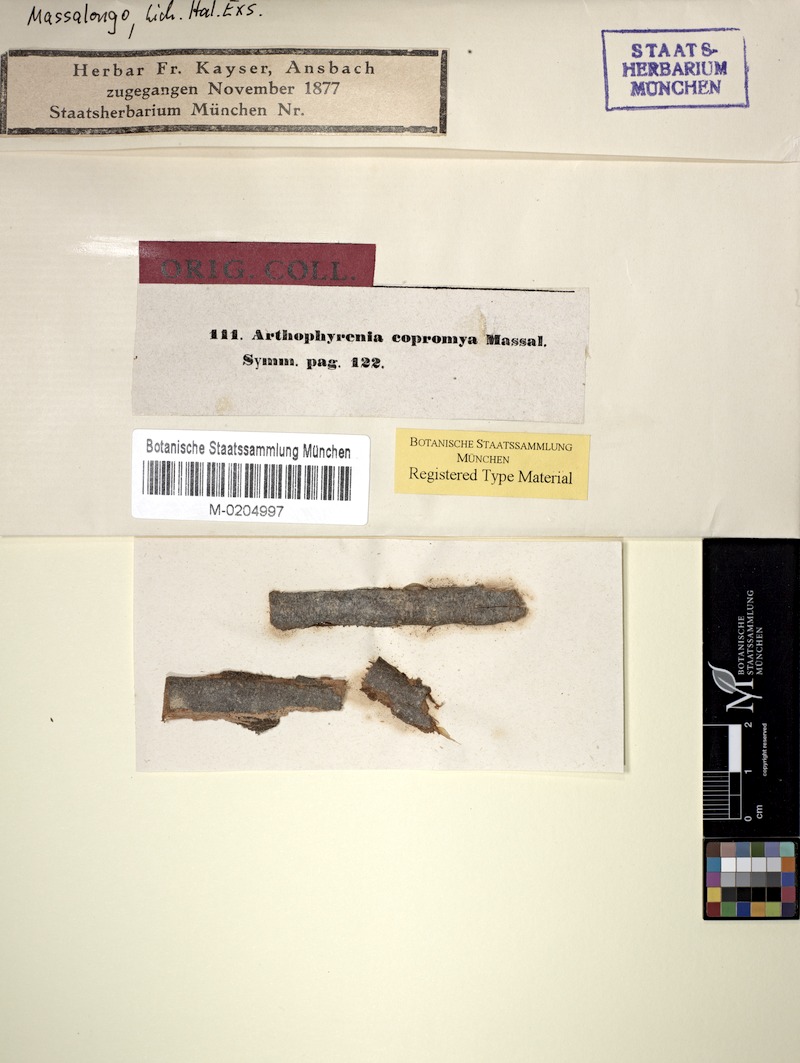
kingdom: Fungi
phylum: Ascomycota
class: Dothideomycetes
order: Pleosporales
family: Arthopyreniaceae
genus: Arthopyrenia
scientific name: Arthopyrenia copromya
